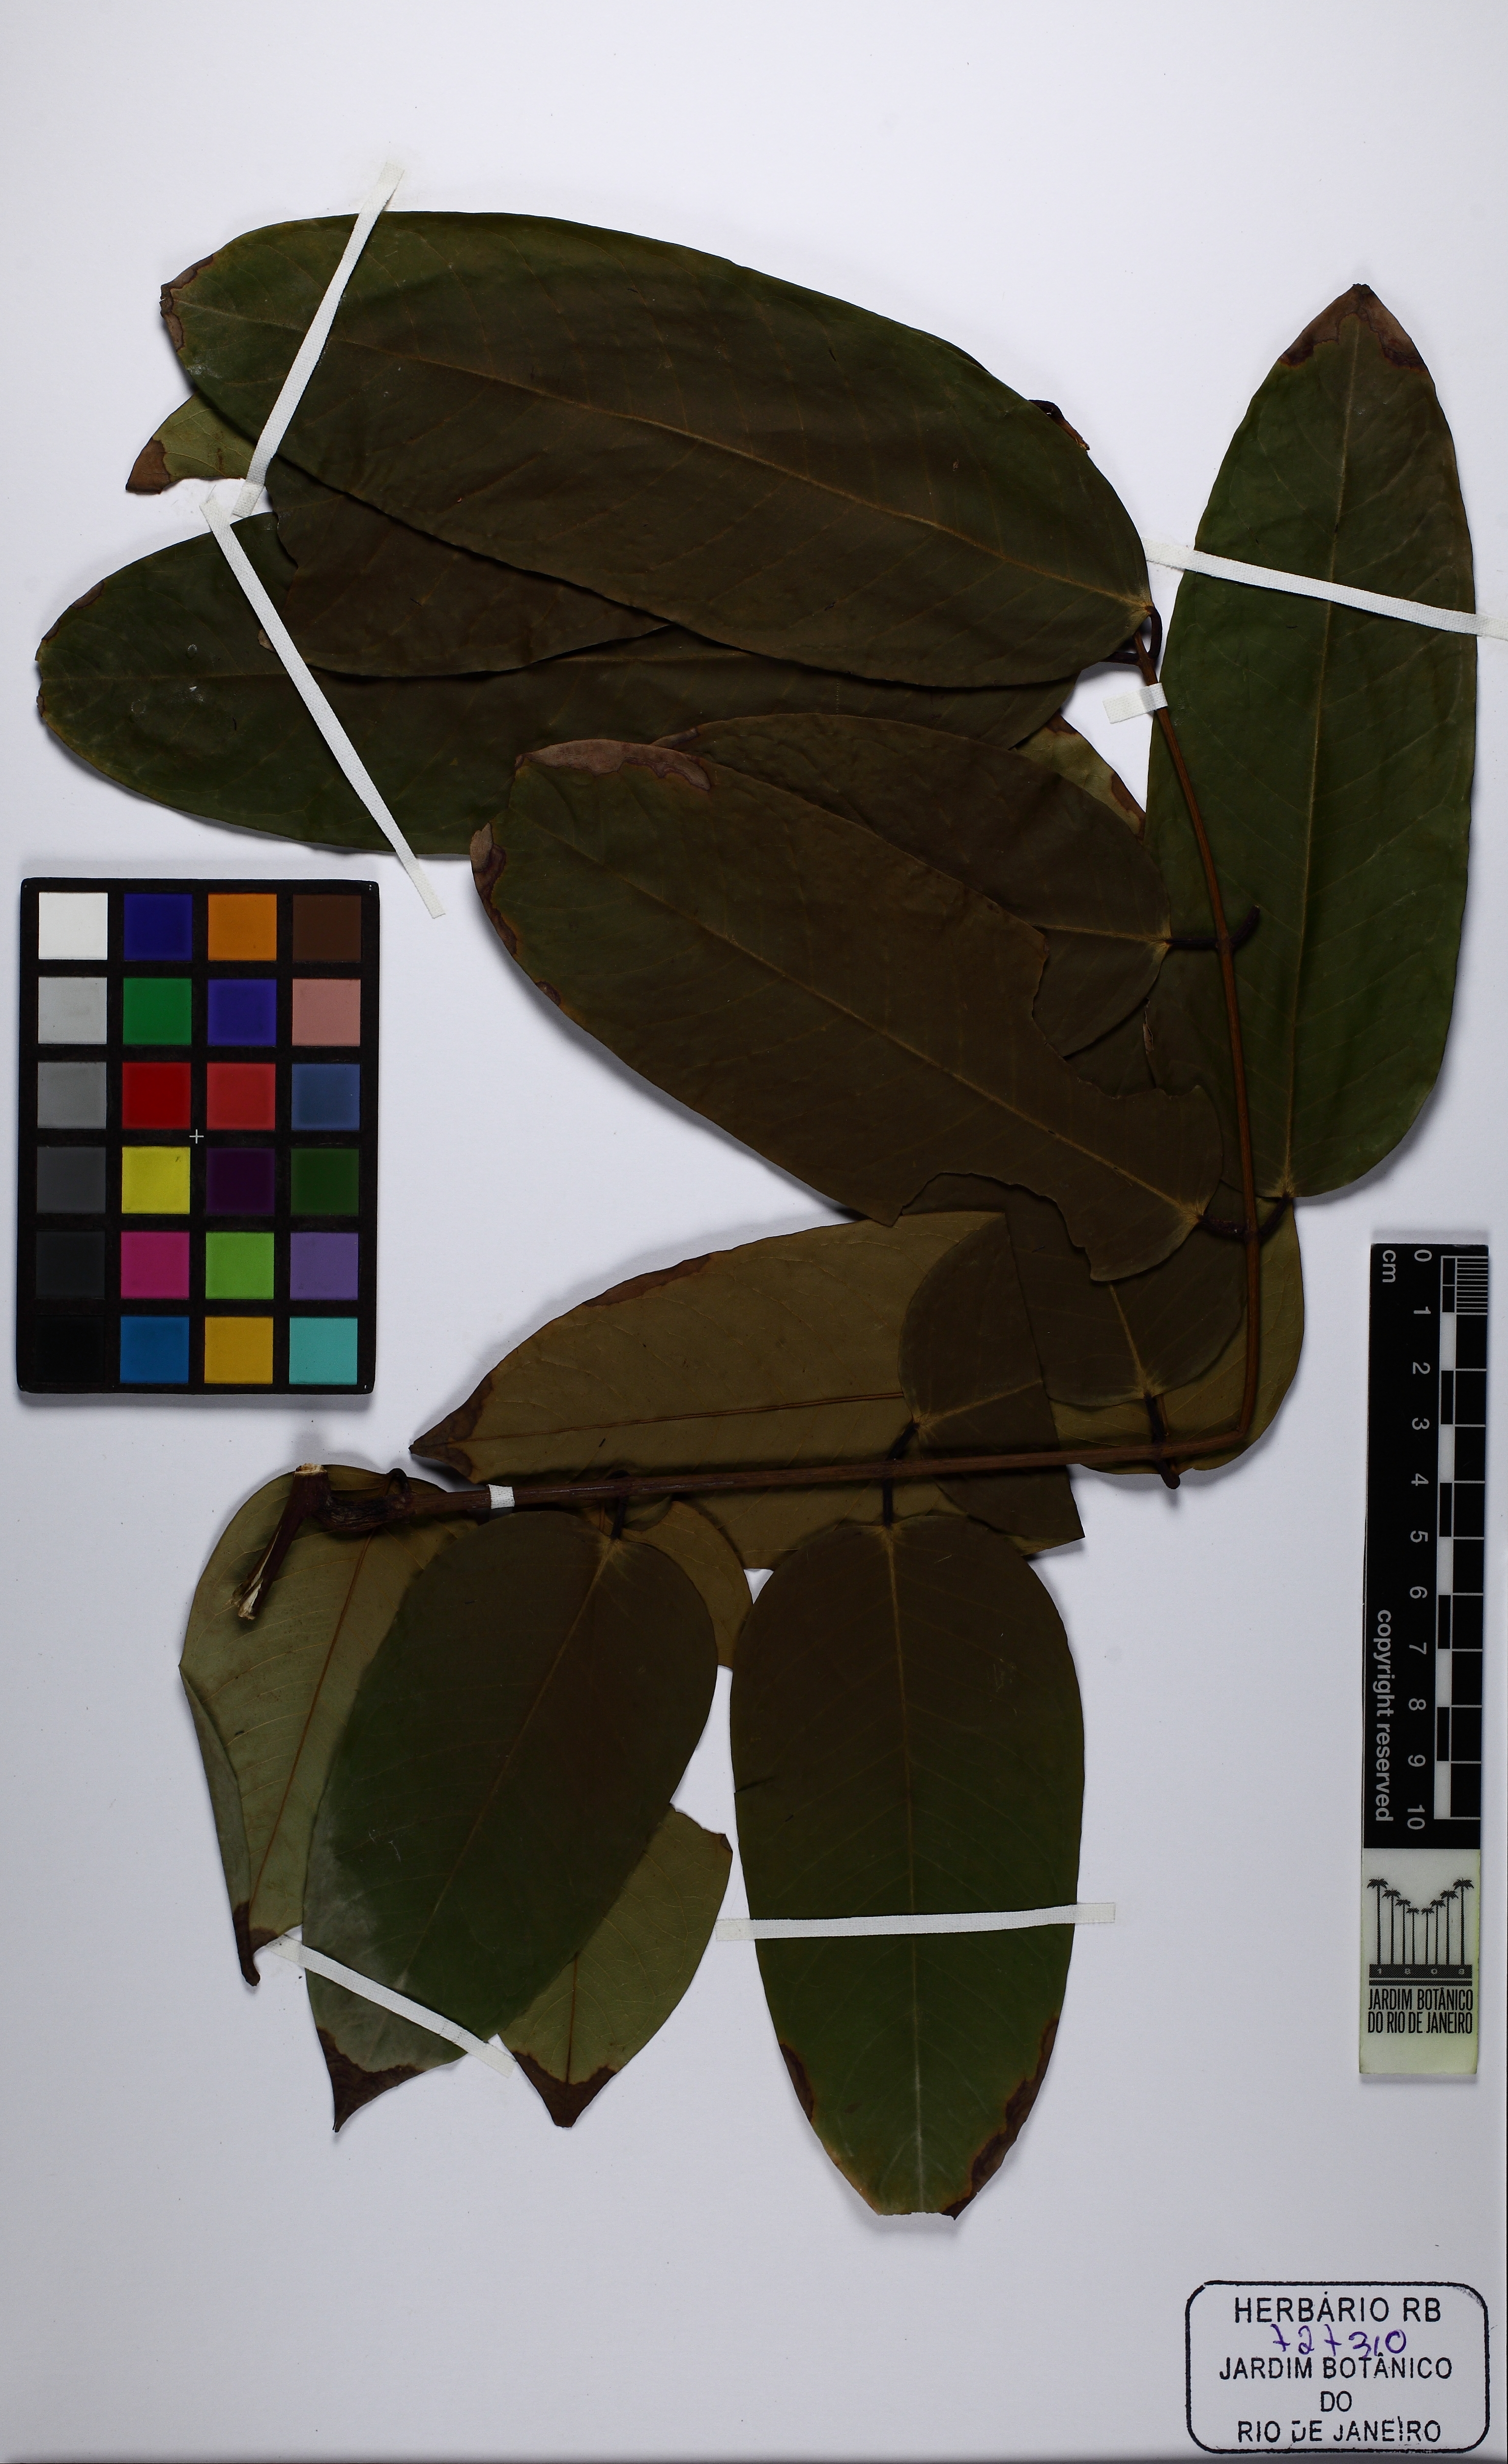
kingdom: Plantae
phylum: Tracheophyta
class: Magnoliopsida
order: Fabales
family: Fabaceae
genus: Amherstia
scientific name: Amherstia nobilis
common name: Pride-of-burma
